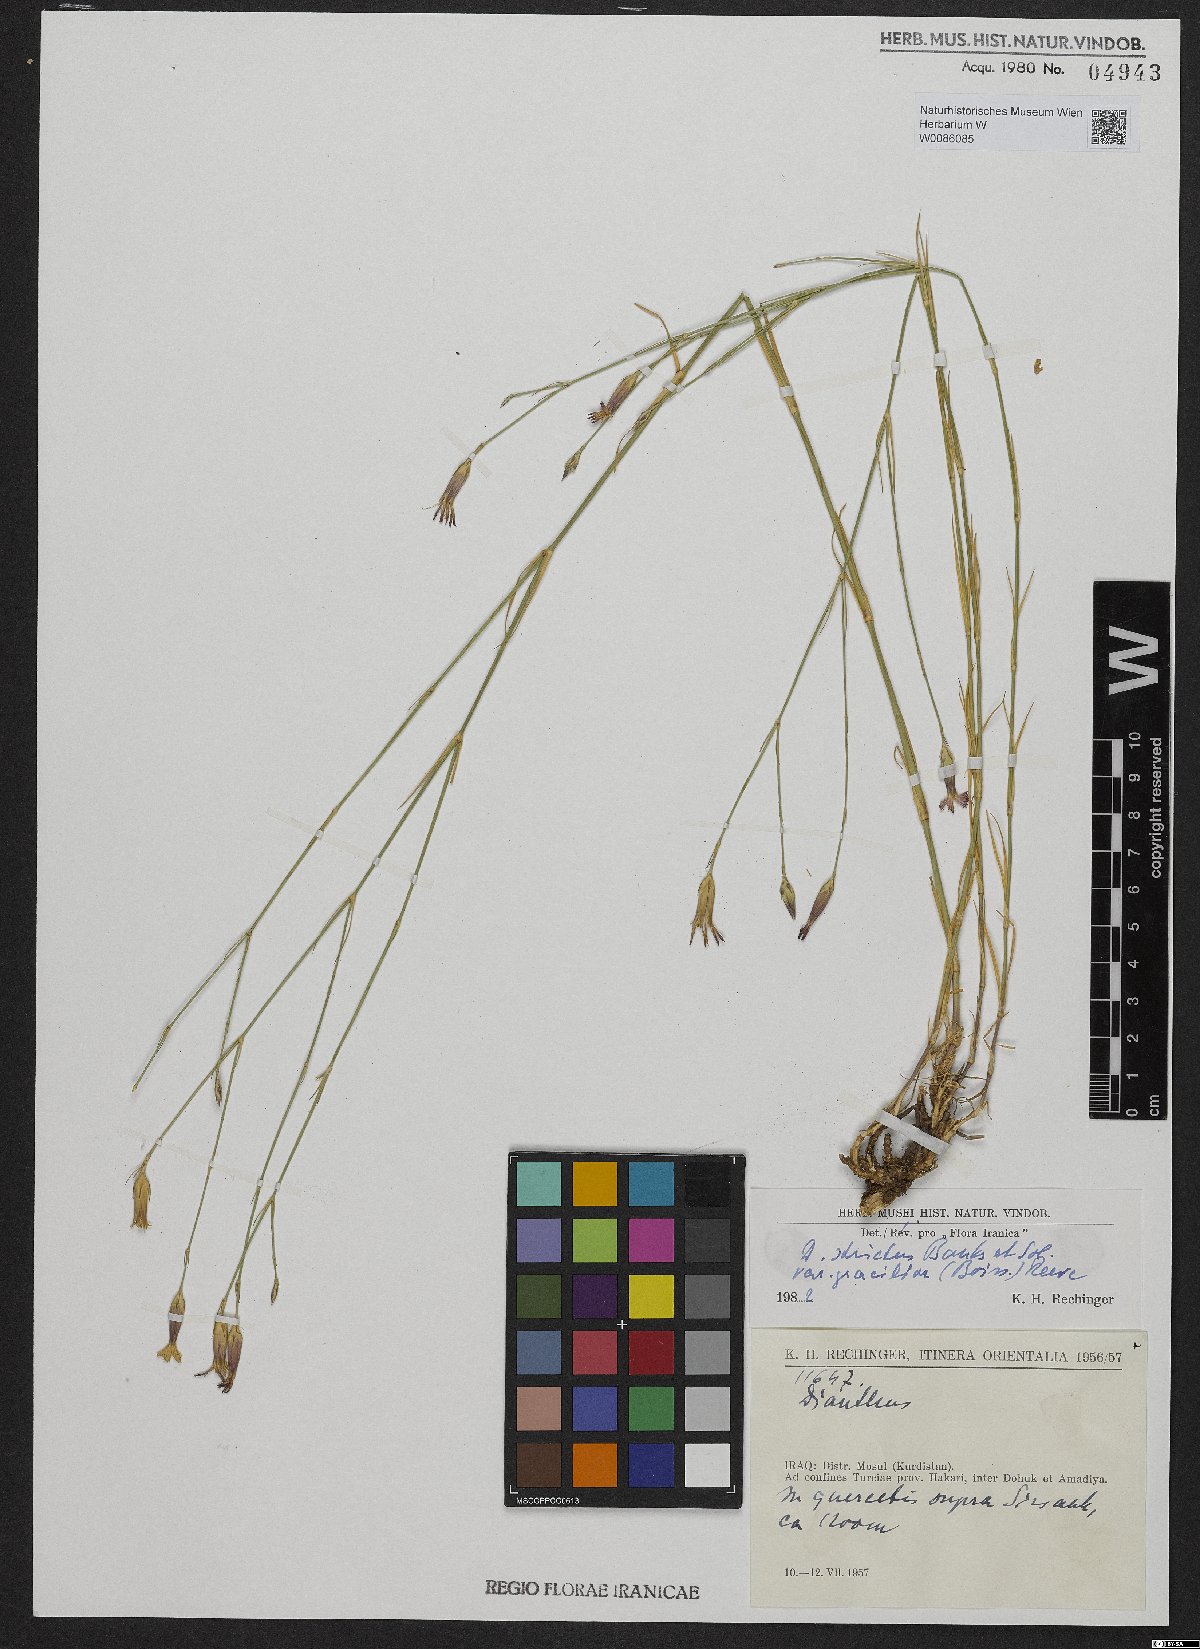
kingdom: Plantae
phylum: Tracheophyta
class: Magnoliopsida
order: Caryophyllales
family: Caryophyllaceae
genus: Dianthus
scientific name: Dianthus strictus
